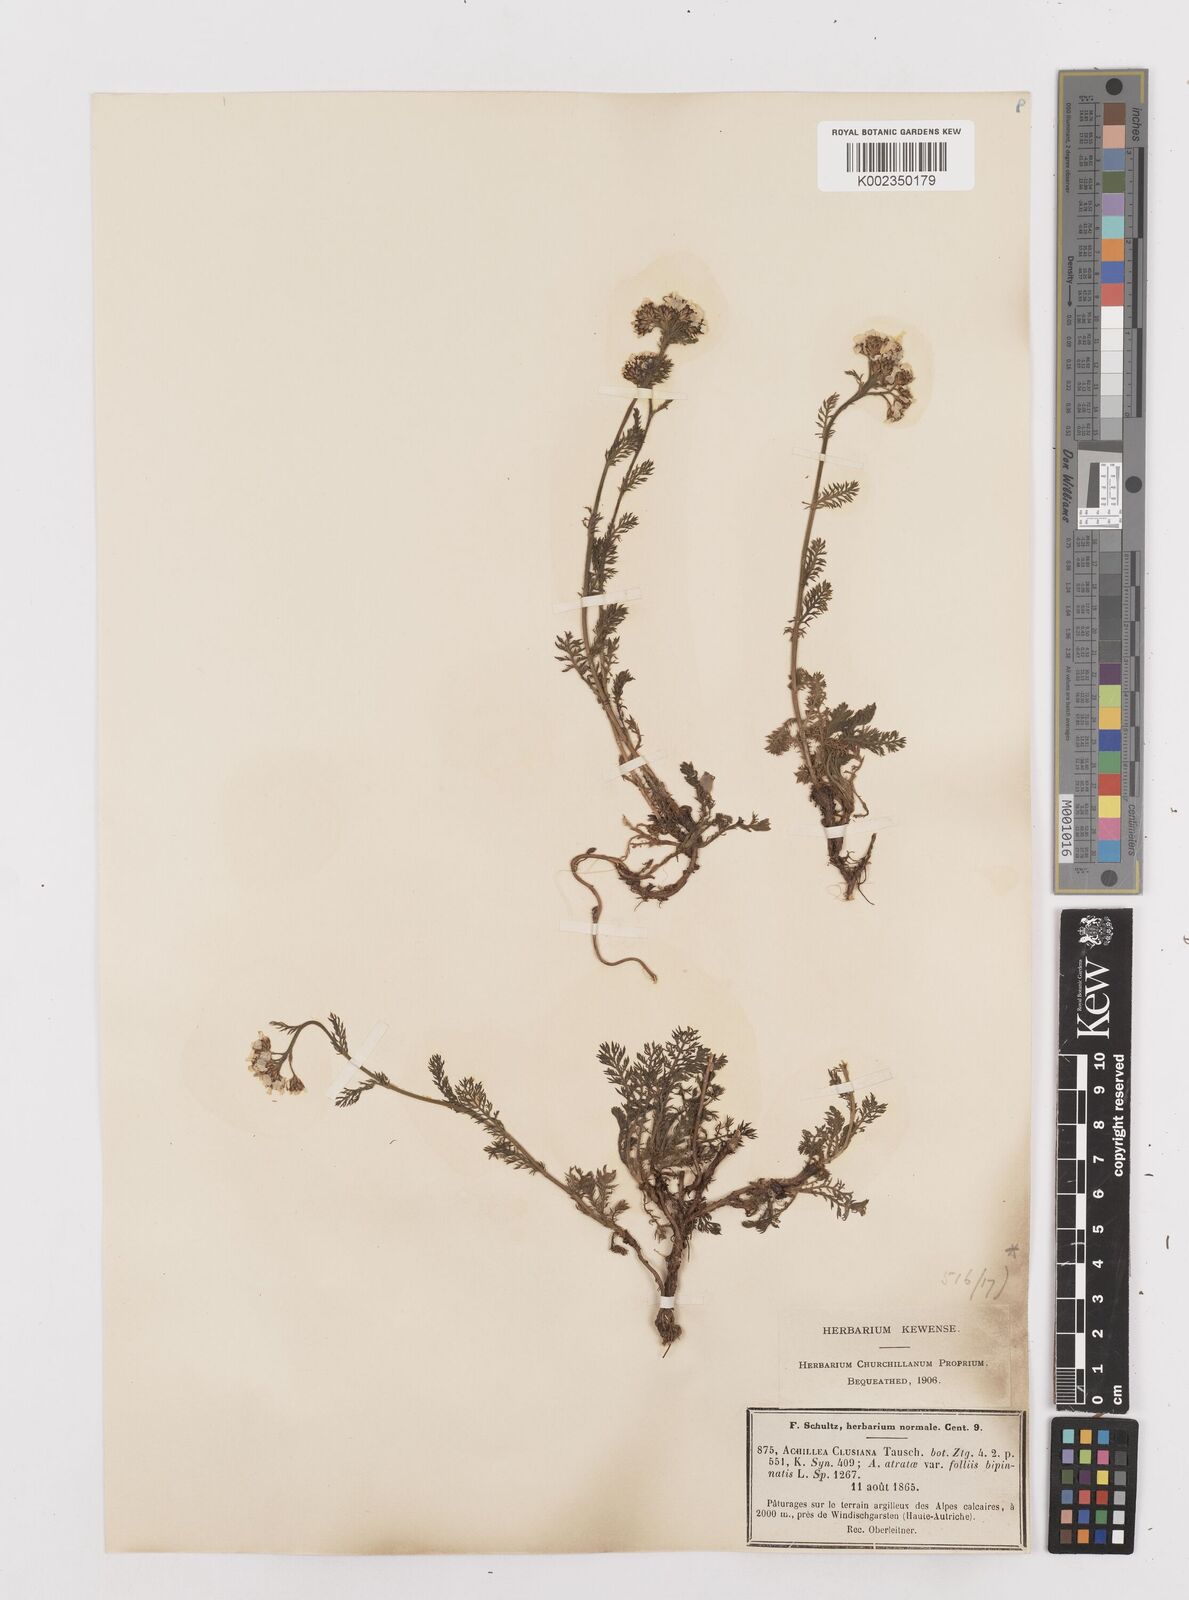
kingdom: Plantae
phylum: Tracheophyta
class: Magnoliopsida
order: Asterales
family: Asteraceae
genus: Achillea
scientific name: Achillea clusiana
